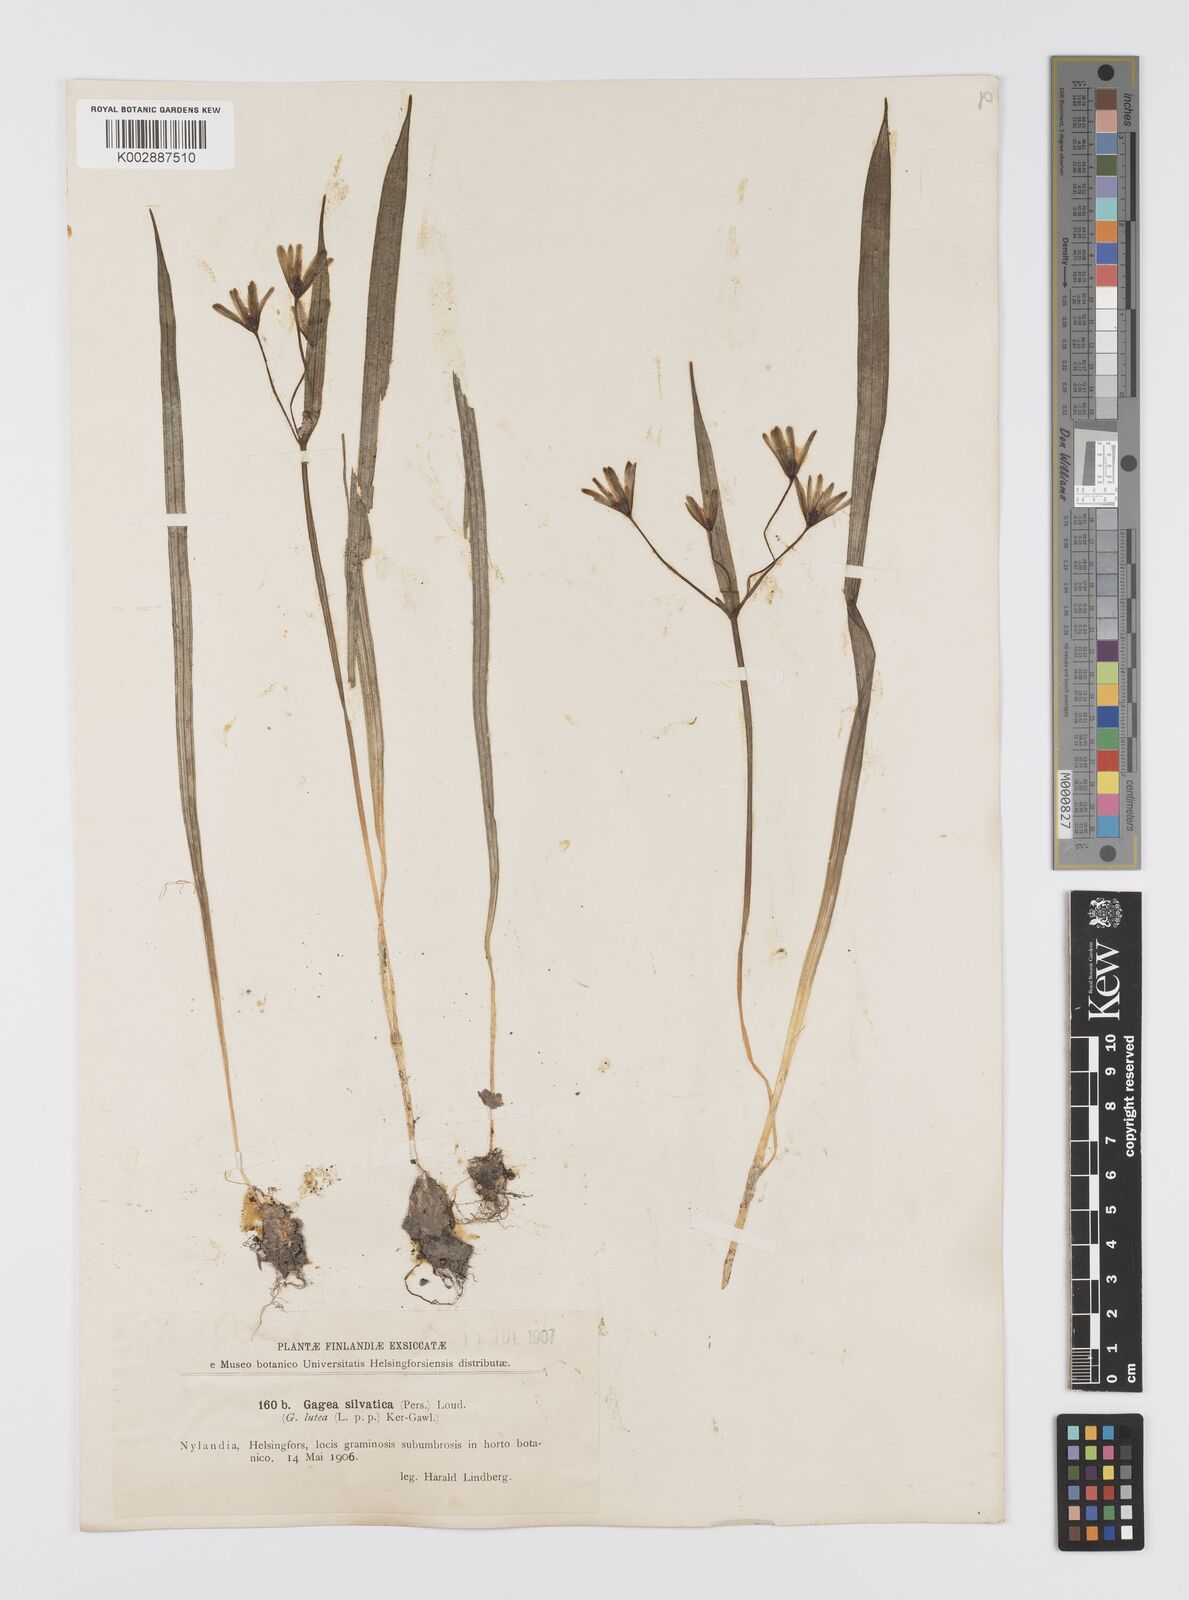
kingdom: Plantae
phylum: Tracheophyta
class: Liliopsida
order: Liliales
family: Liliaceae
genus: Gagea
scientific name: Gagea lutea
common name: Yellow star-of-bethlehem
